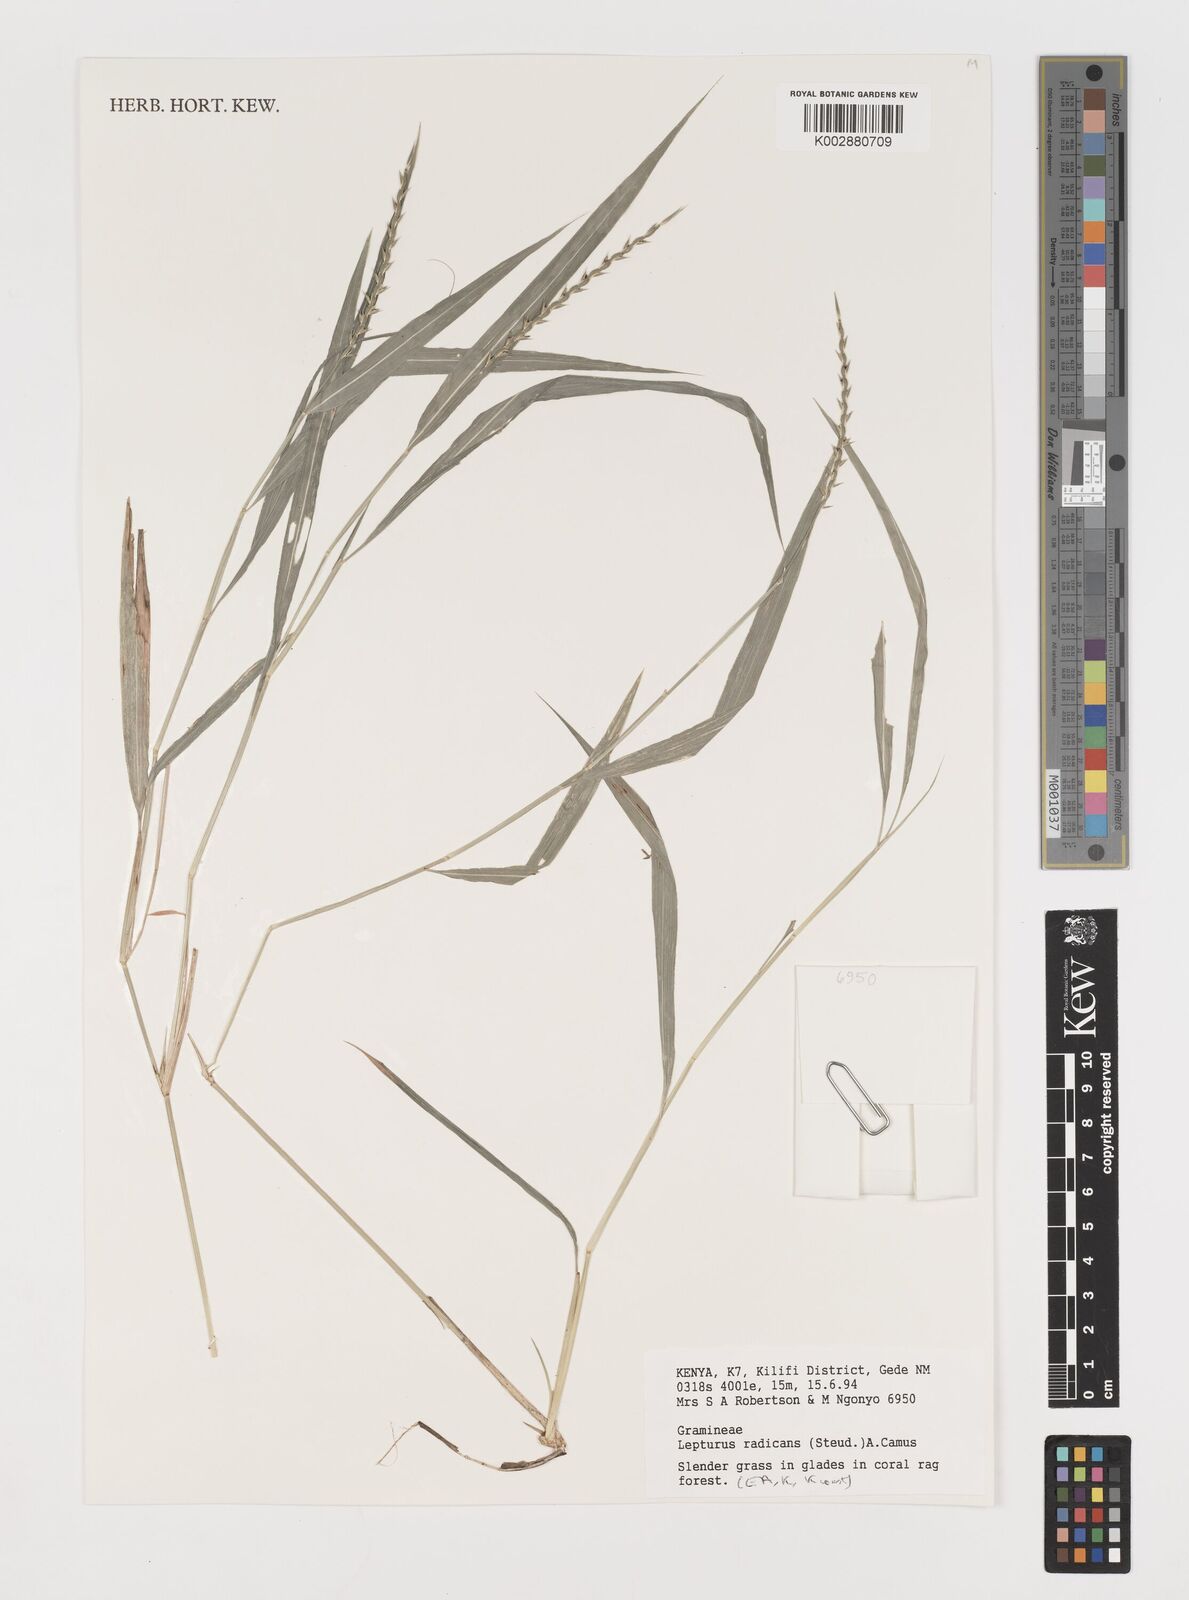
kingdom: Plantae
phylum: Tracheophyta
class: Liliopsida
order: Poales
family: Poaceae
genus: Lepturus
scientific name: Lepturus radicans
